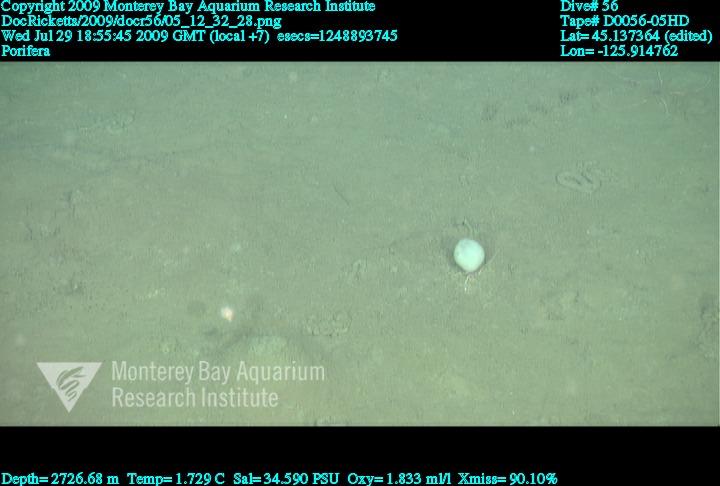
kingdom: Animalia
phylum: Porifera
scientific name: Porifera
